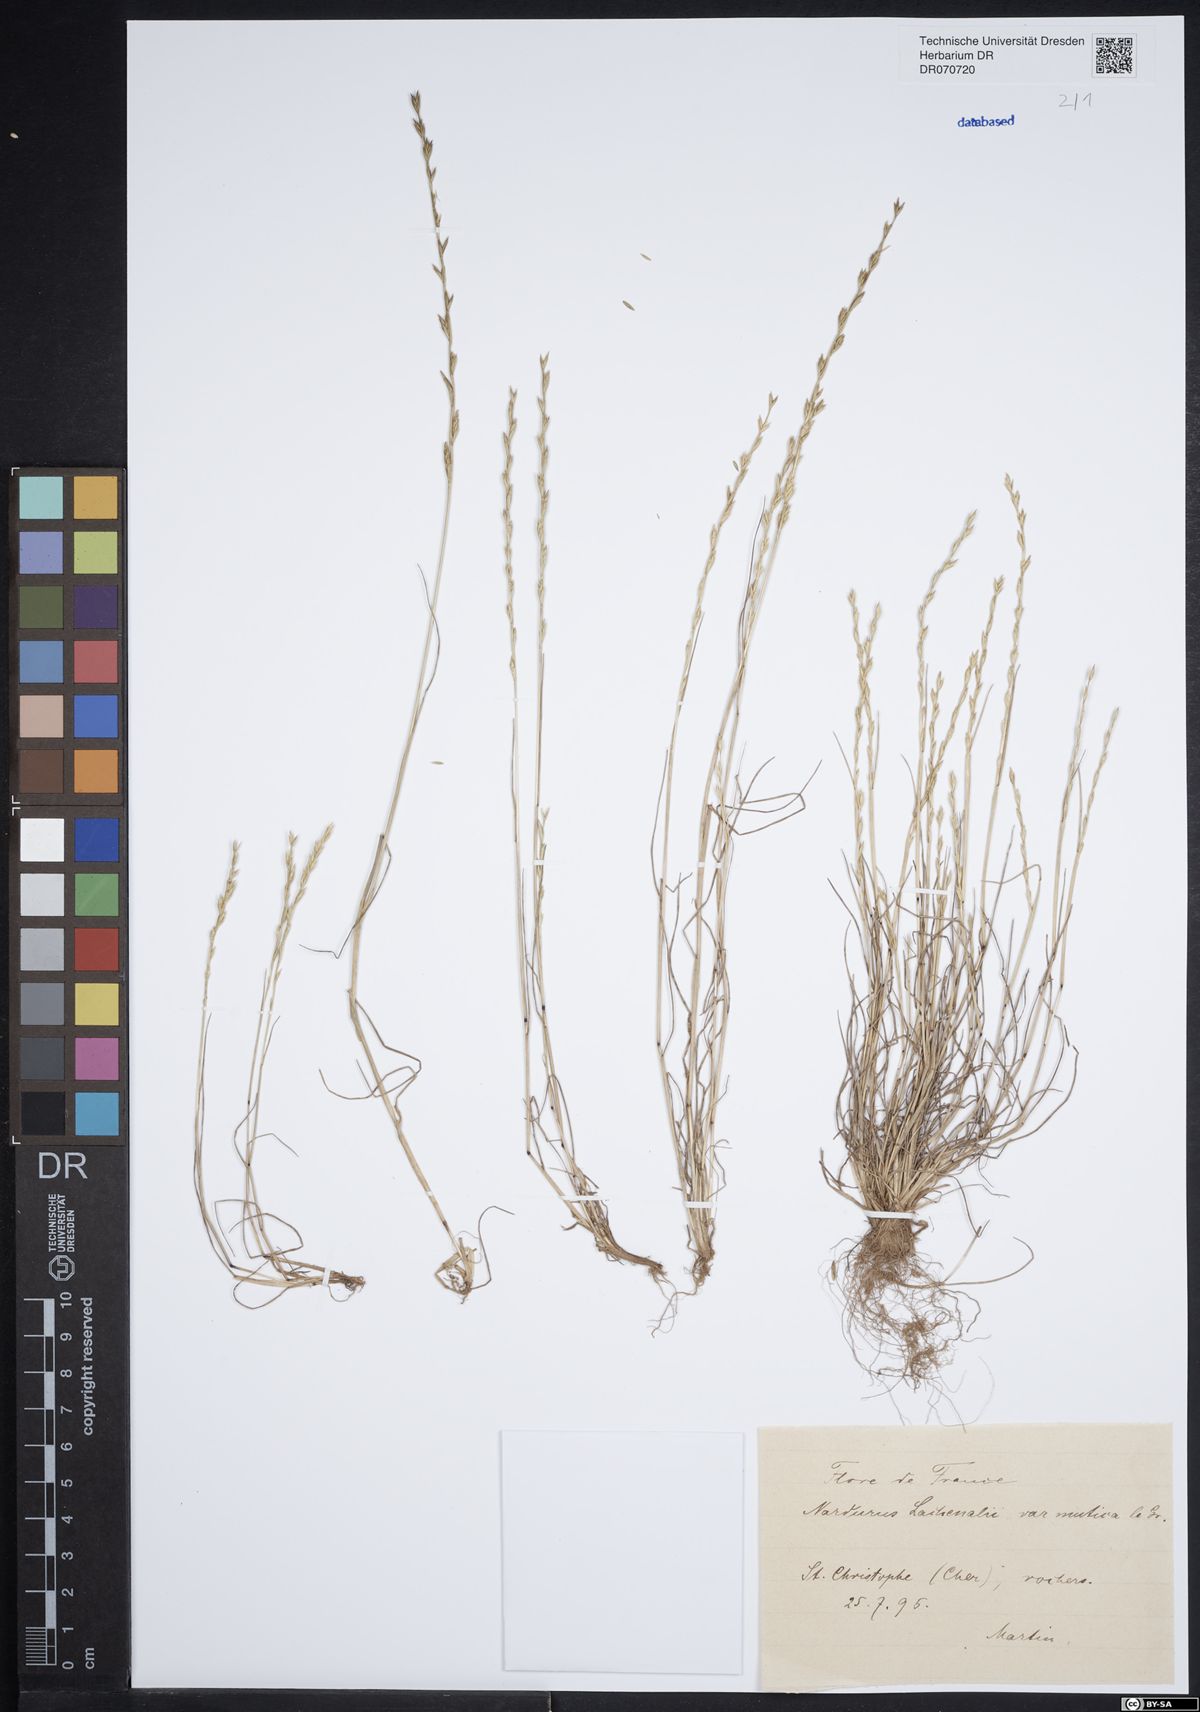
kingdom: Plantae
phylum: Tracheophyta
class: Liliopsida
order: Poales
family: Poaceae
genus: Festuca
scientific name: Festuca lachenalii
